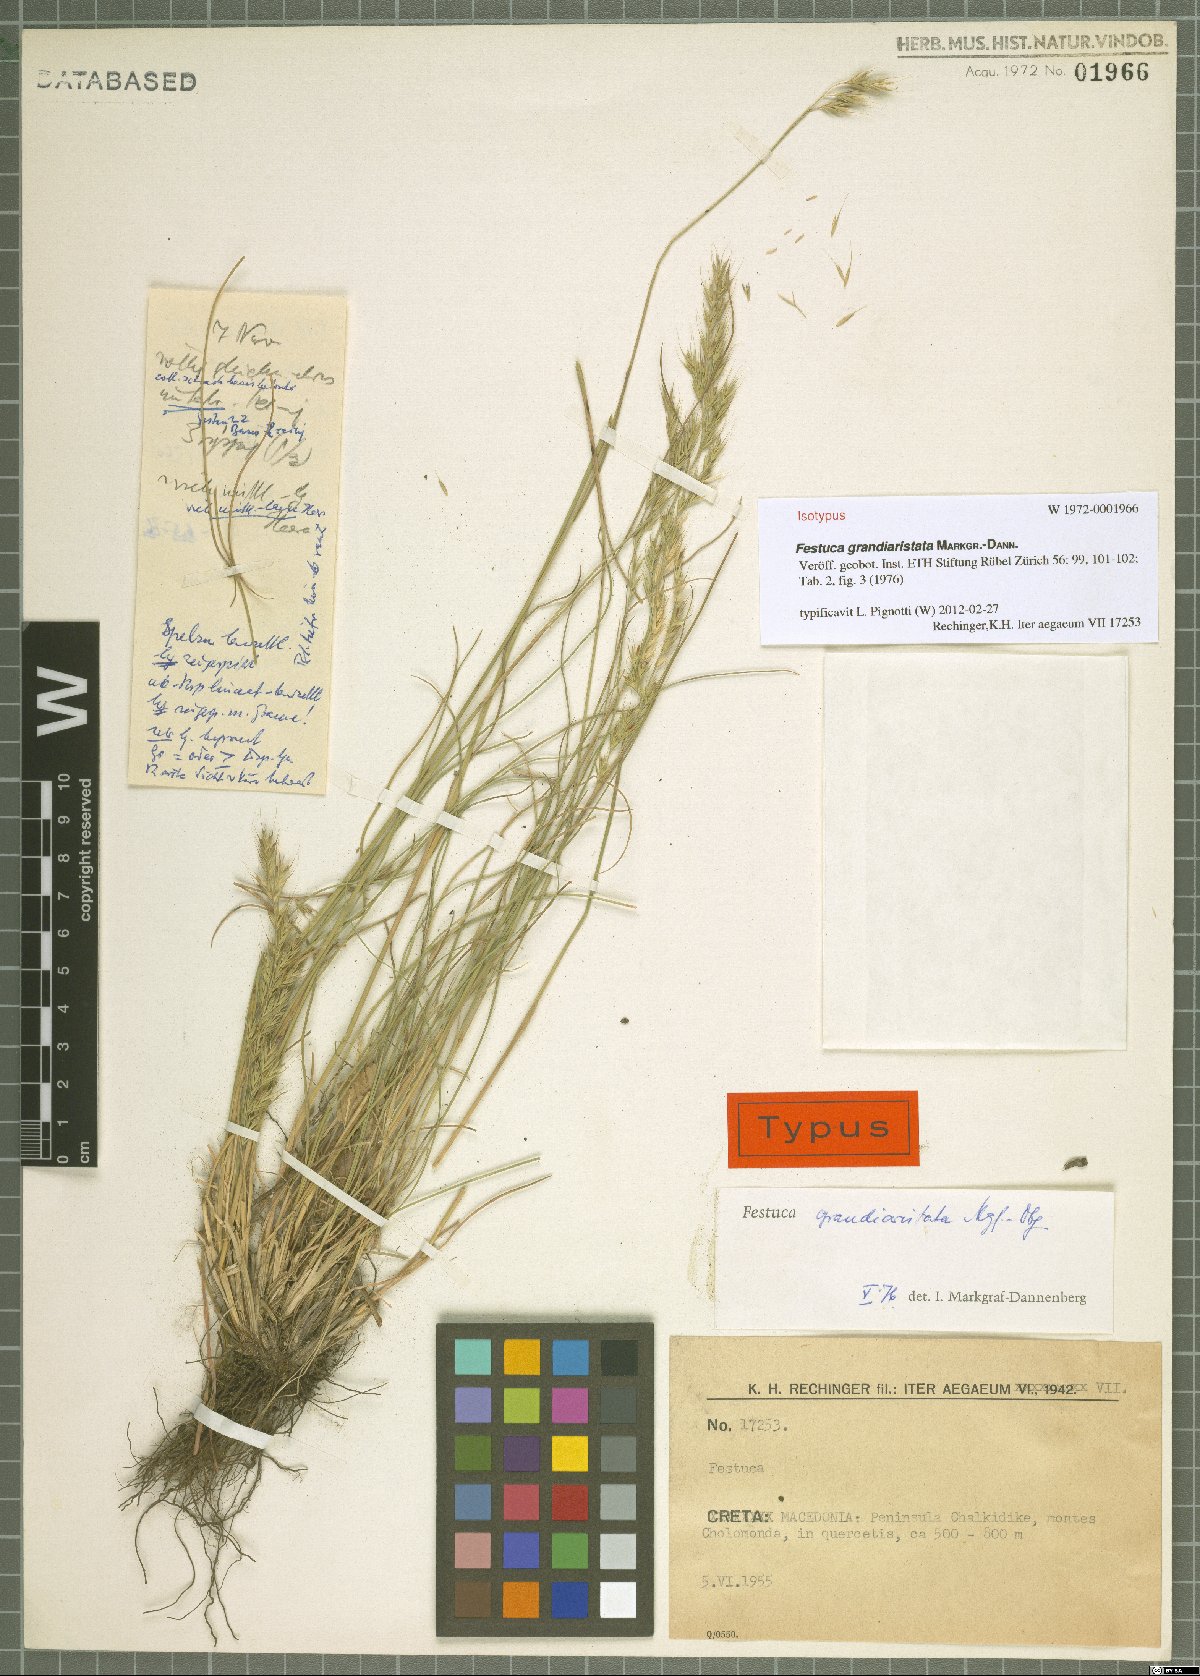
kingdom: Plantae
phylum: Tracheophyta
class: Liliopsida
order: Poales
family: Poaceae
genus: Festuca
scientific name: Festuca grandiaristata
